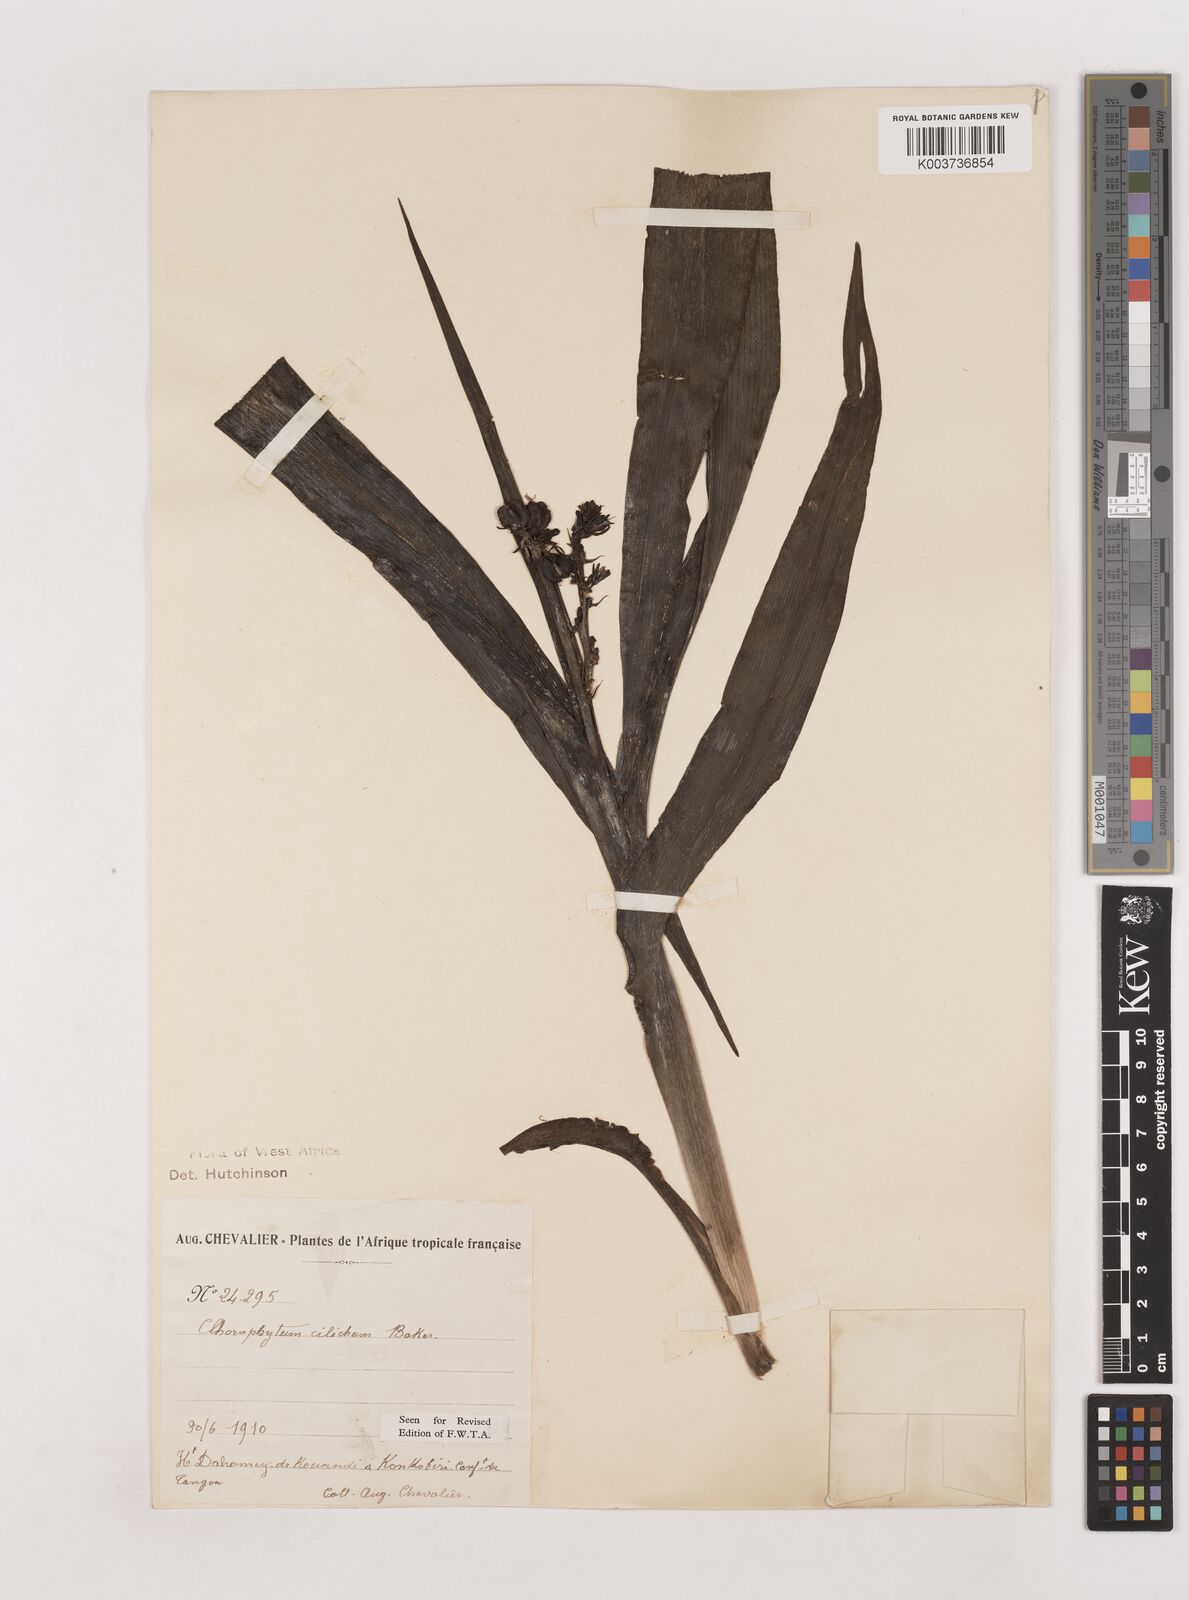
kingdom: Plantae
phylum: Tracheophyta
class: Liliopsida
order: Asparagales
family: Asparagaceae
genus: Chlorophytum
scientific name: Chlorophytum blepharophyllum
